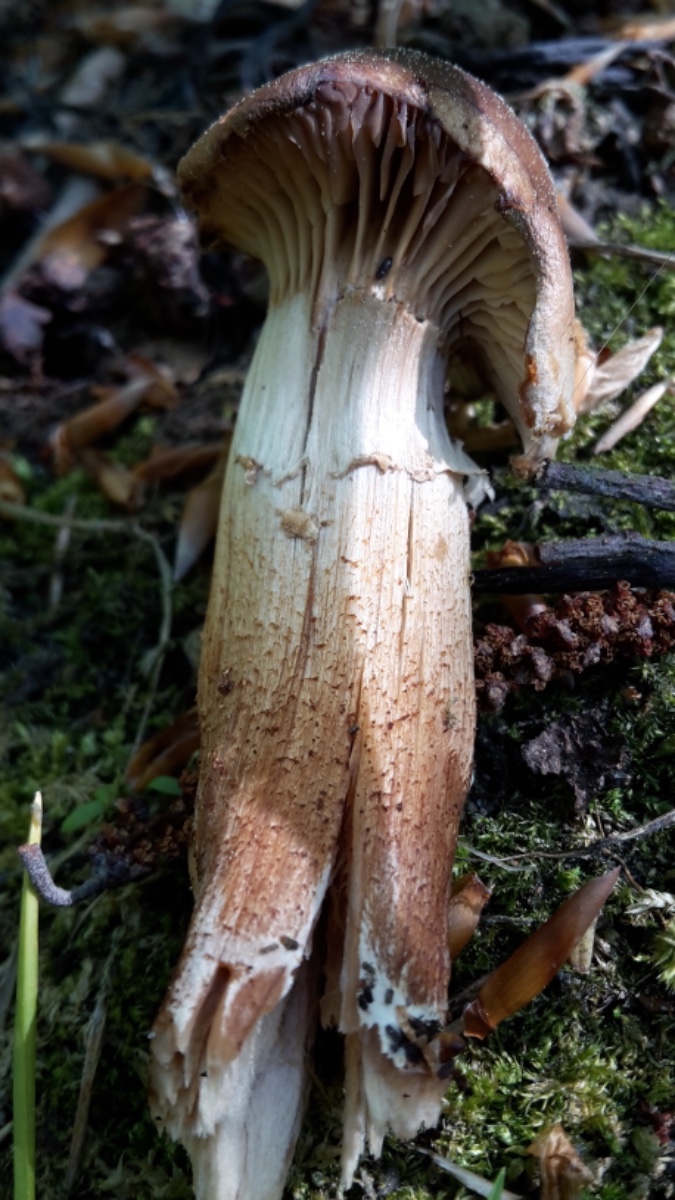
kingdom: Fungi
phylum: Basidiomycota
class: Agaricomycetes
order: Agaricales
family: Strophariaceae
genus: Kuehneromyces
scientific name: Kuehneromyces mutabilis
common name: foranderlig skælhat
